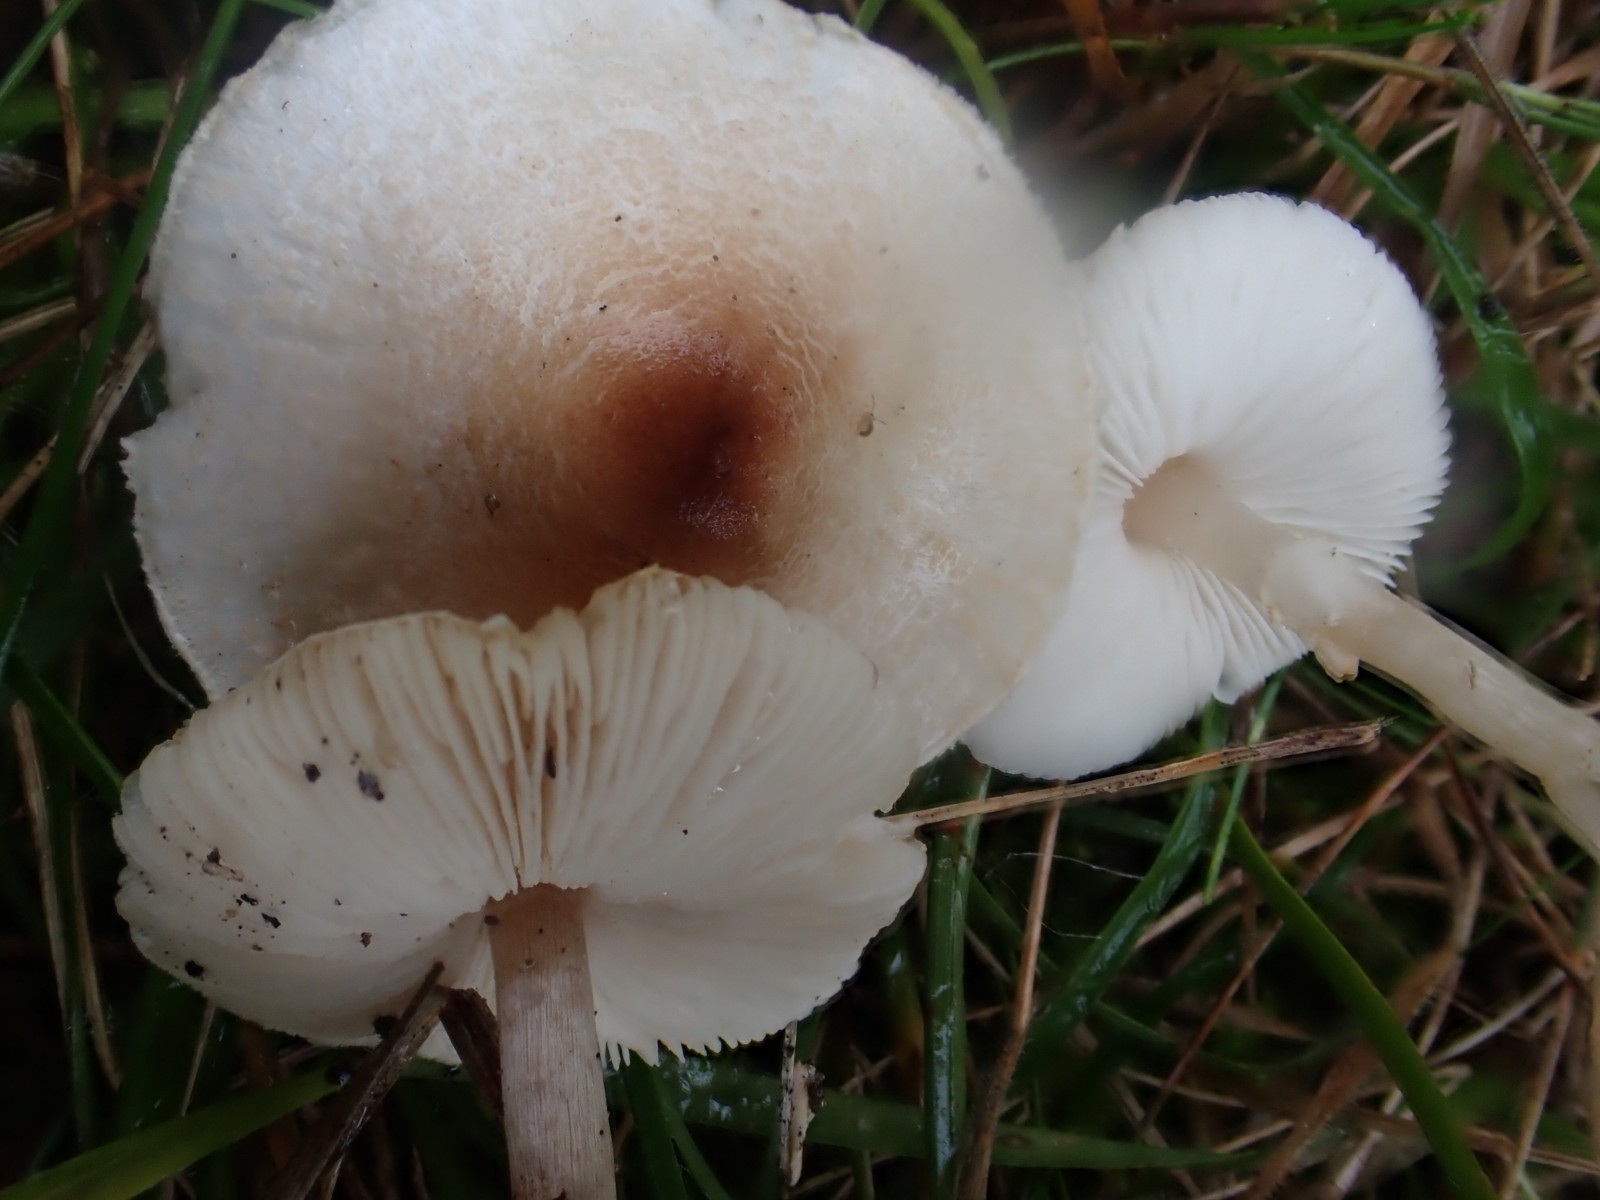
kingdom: Fungi
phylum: Basidiomycota
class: Agaricomycetes
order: Agaricales
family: Agaricaceae
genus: Lepiota
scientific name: Lepiota cristata
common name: stinkende parasolhat
